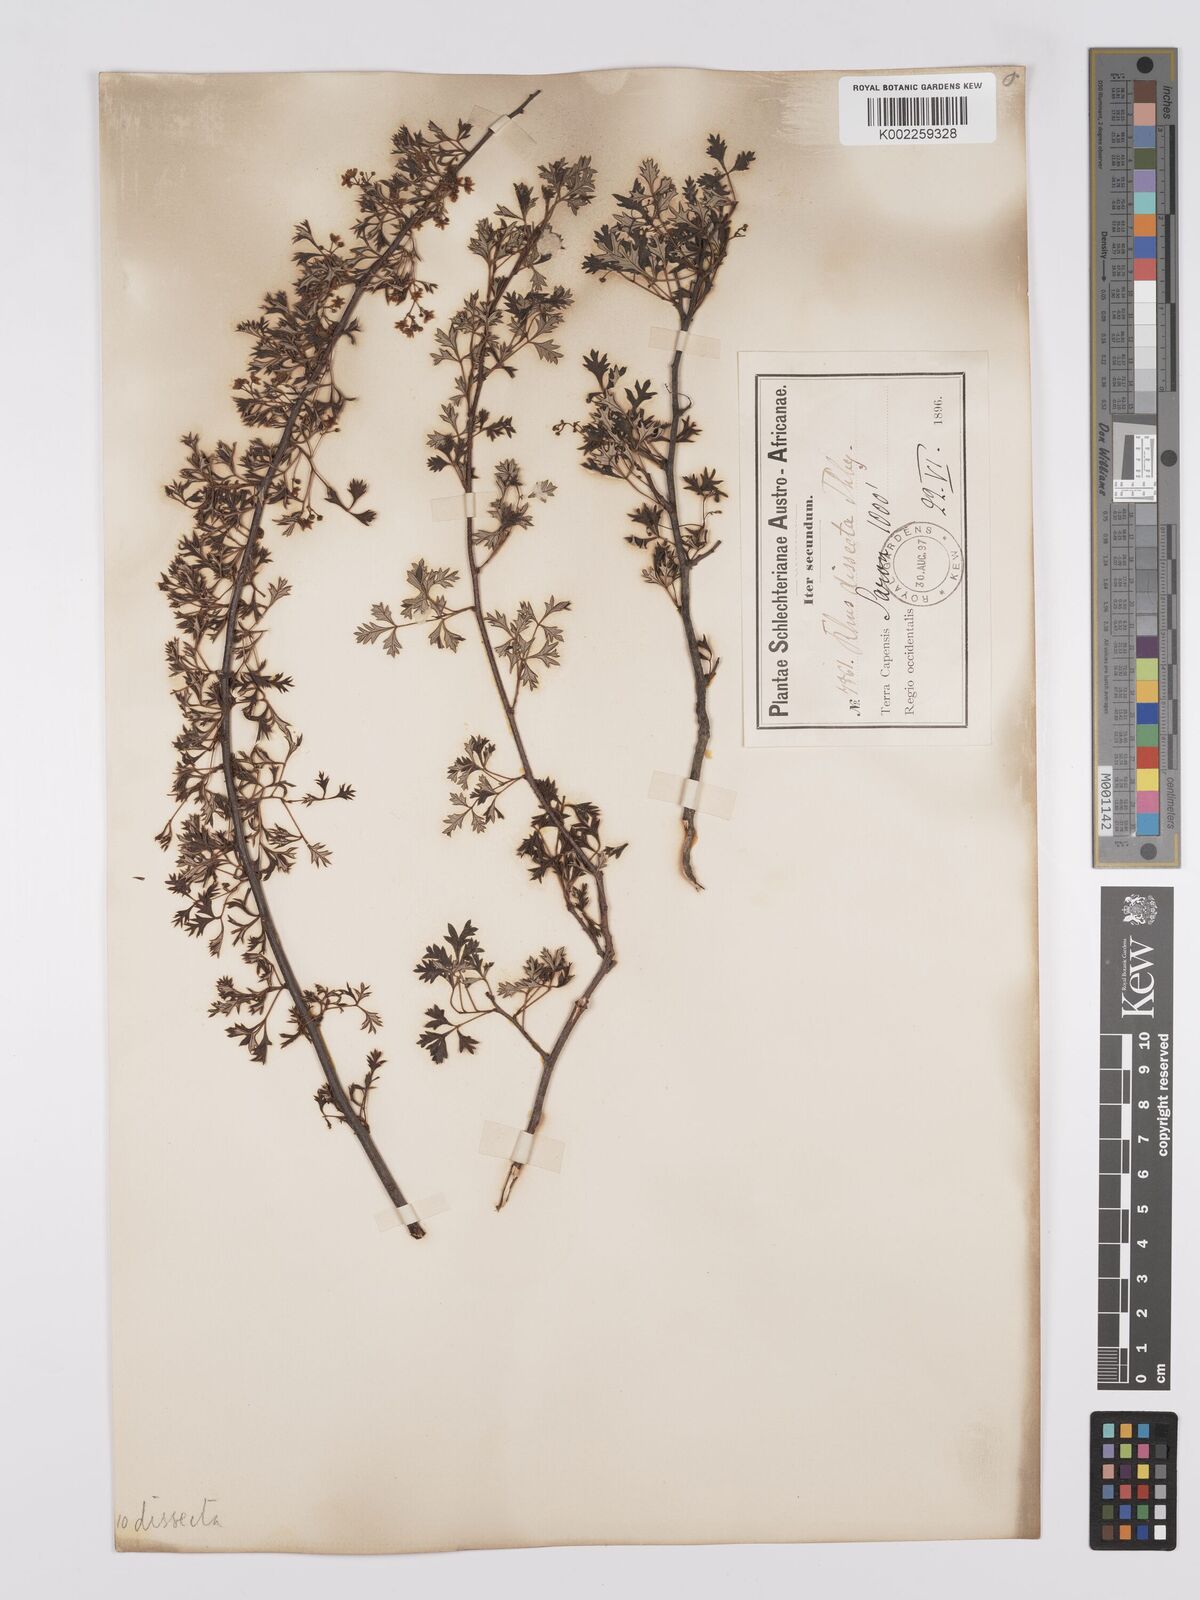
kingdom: Plantae
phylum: Tracheophyta
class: Magnoliopsida
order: Sapindales
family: Anacardiaceae
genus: Searsia
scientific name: Searsia dissecta
